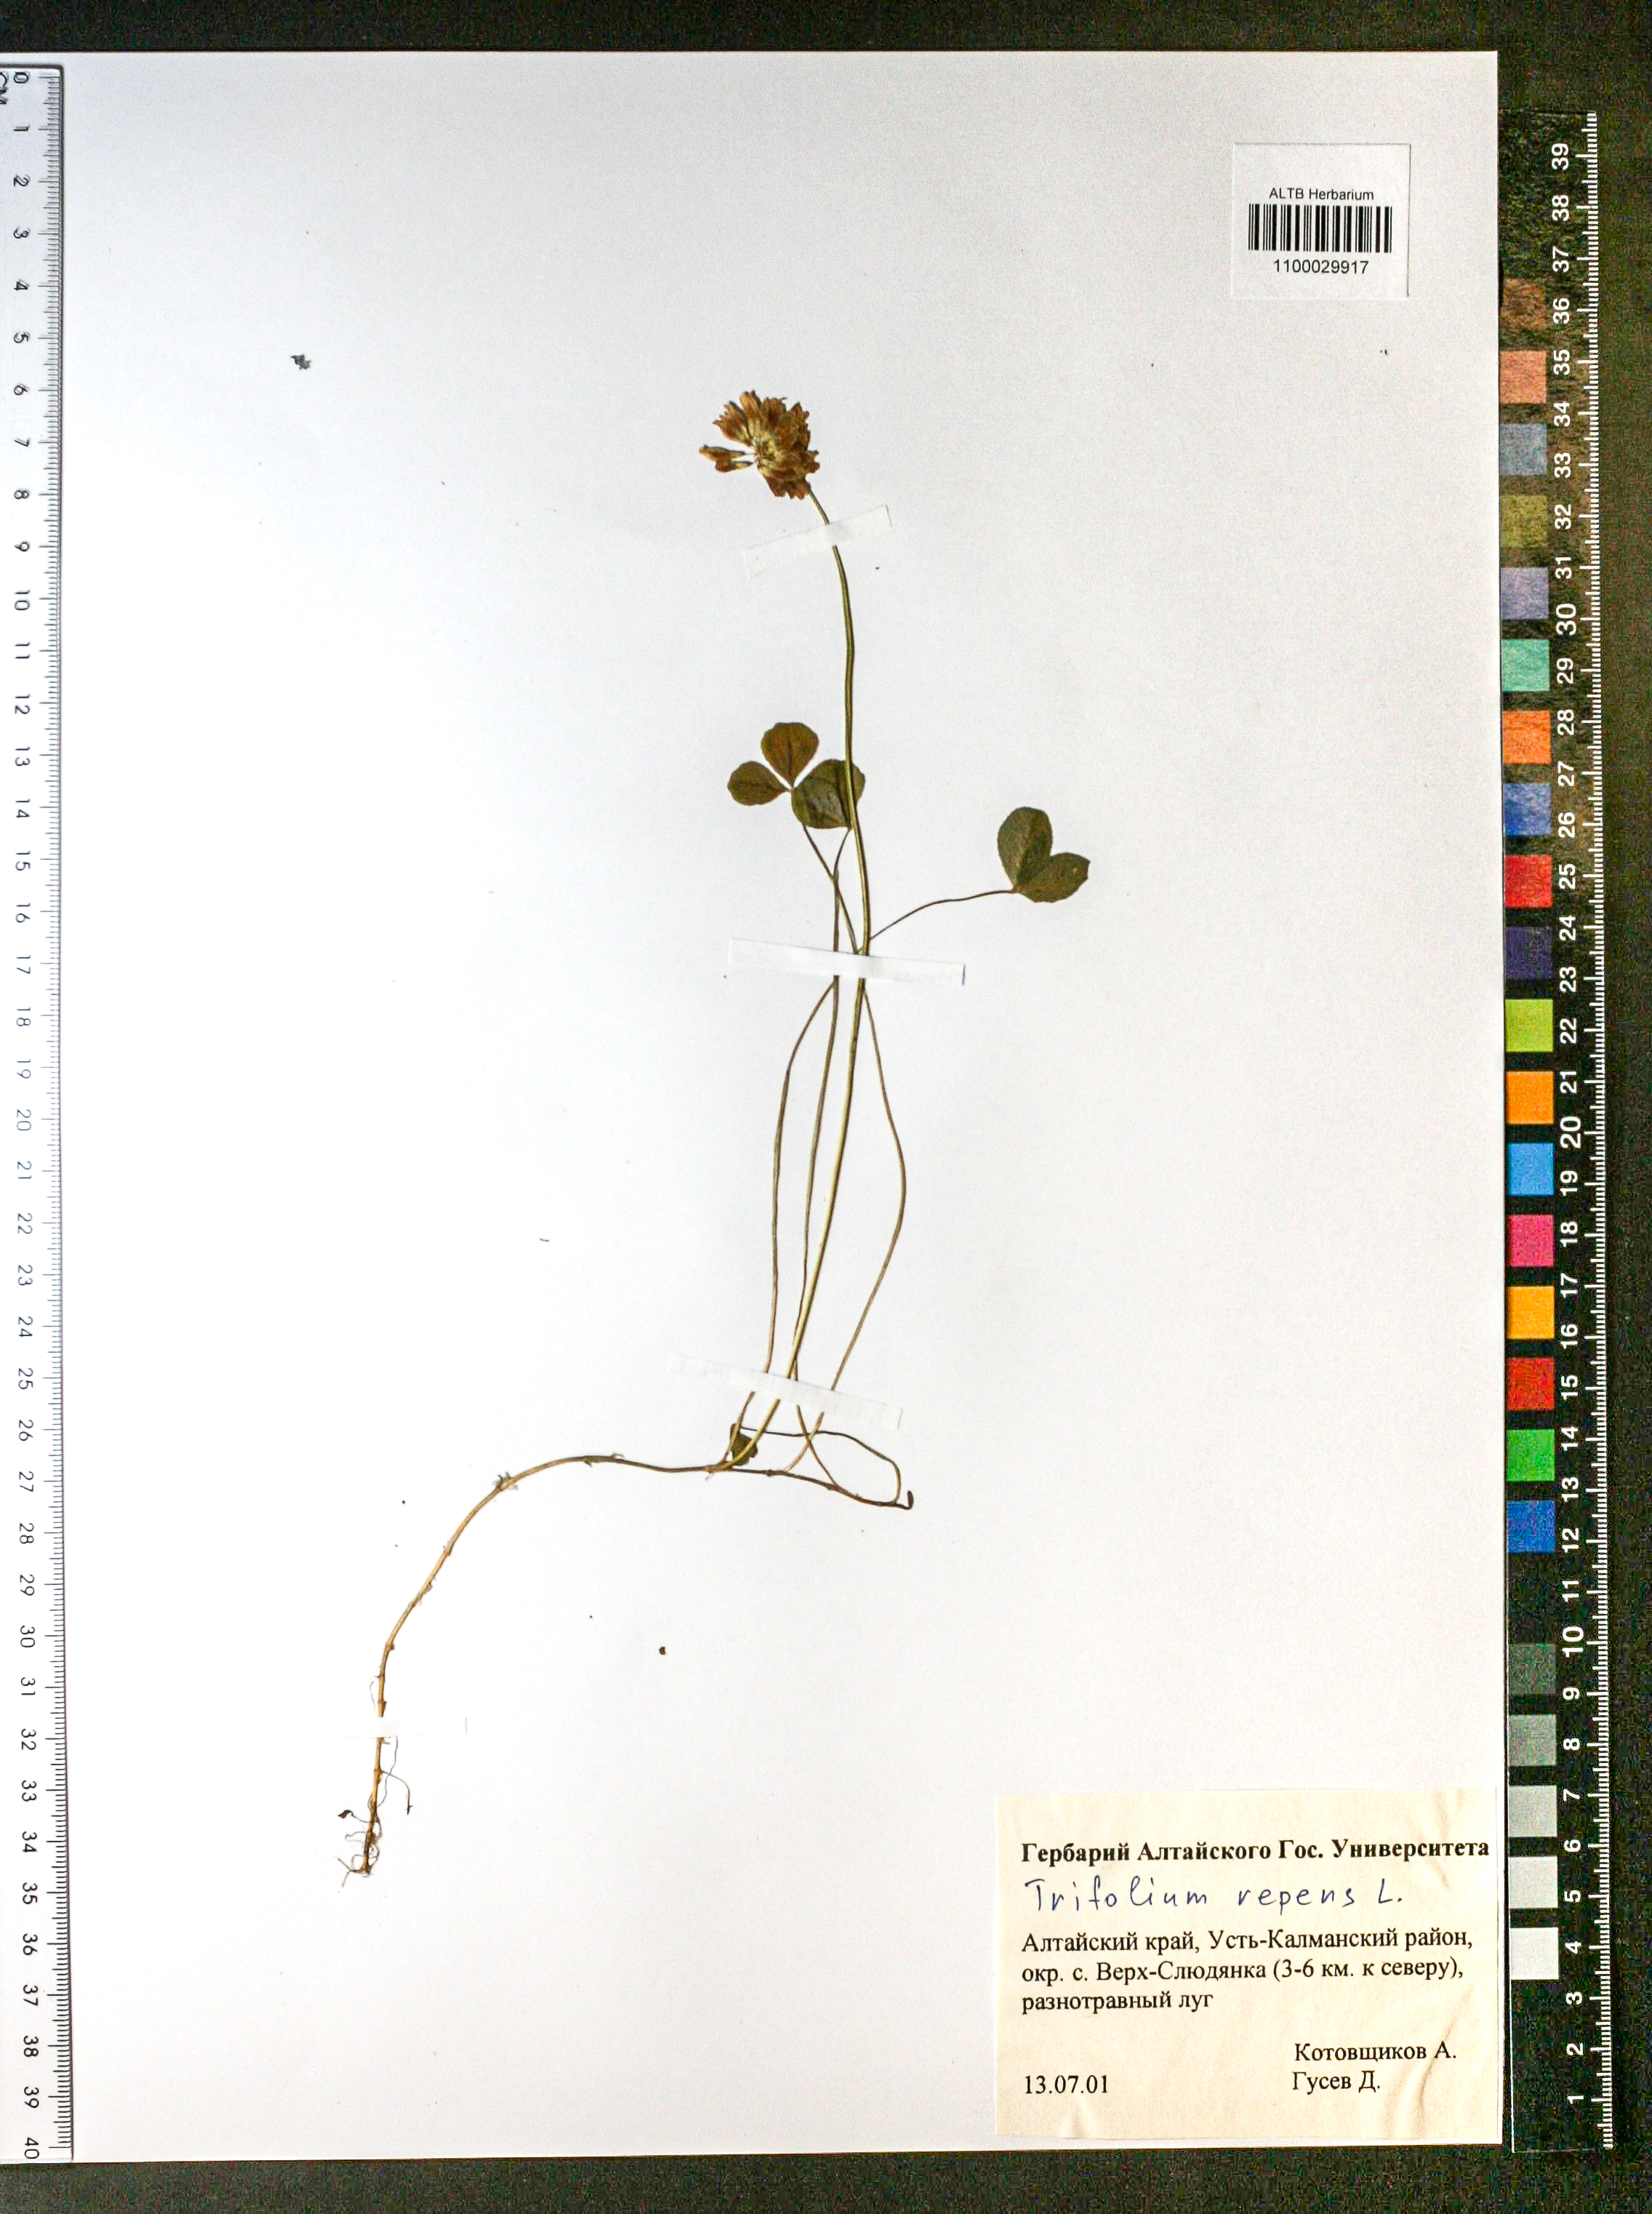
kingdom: Plantae
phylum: Tracheophyta
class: Magnoliopsida
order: Fabales
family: Fabaceae
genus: Trifolium
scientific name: Trifolium repens
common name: White clover
